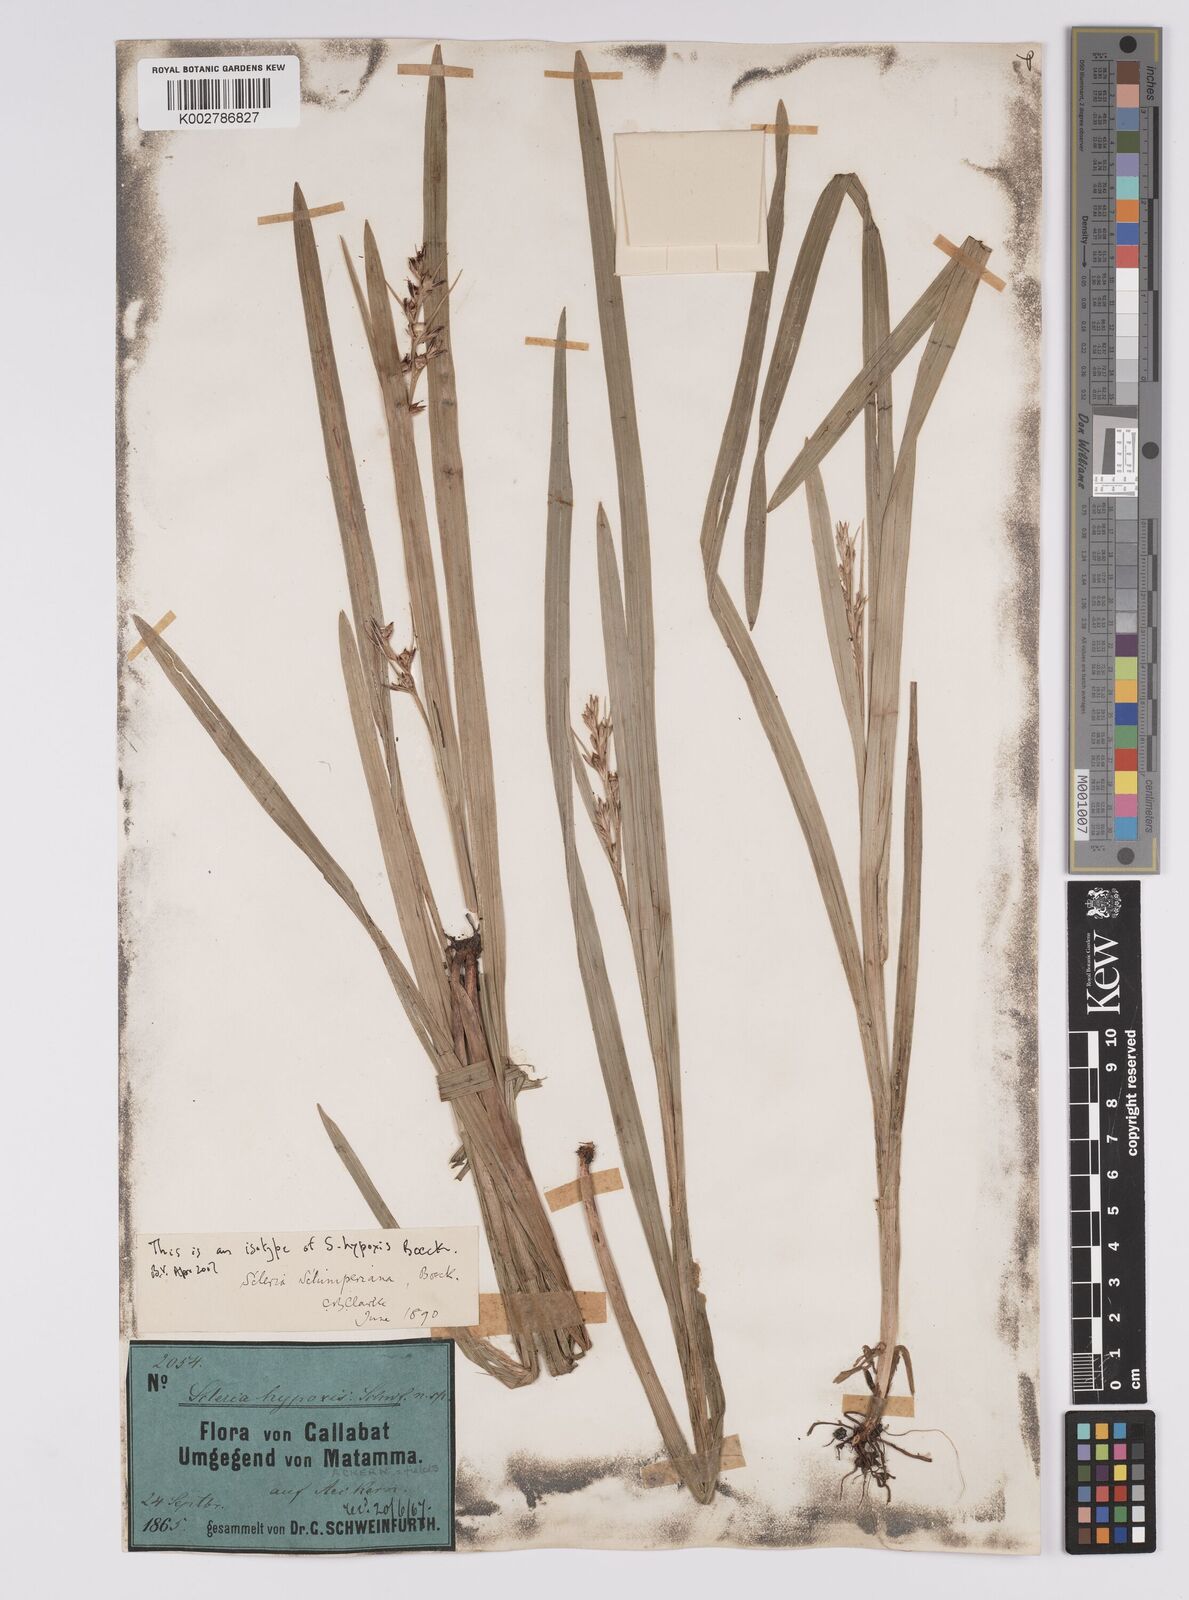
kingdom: Plantae
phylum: Tracheophyta
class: Liliopsida
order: Poales
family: Cyperaceae
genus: Scleria
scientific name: Scleria schimperiana
